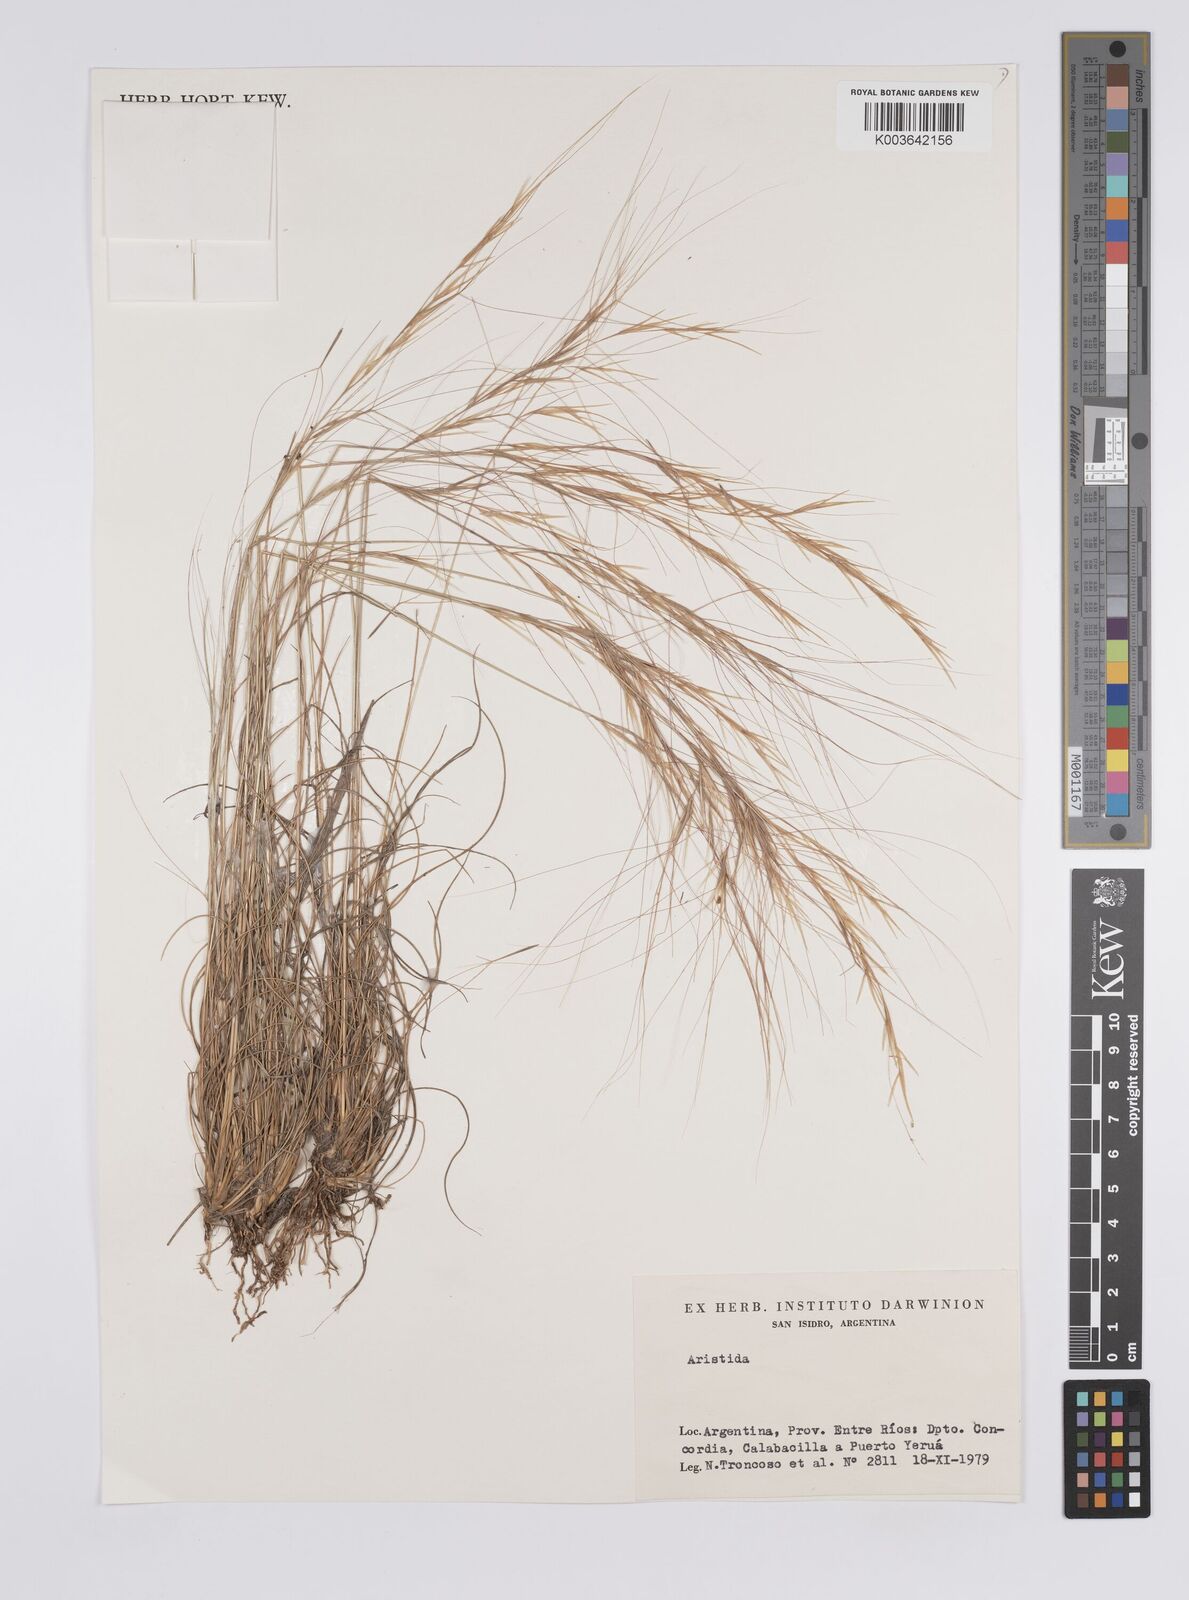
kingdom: Plantae
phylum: Tracheophyta
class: Liliopsida
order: Poales
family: Poaceae
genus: Aristida
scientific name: Aristida
